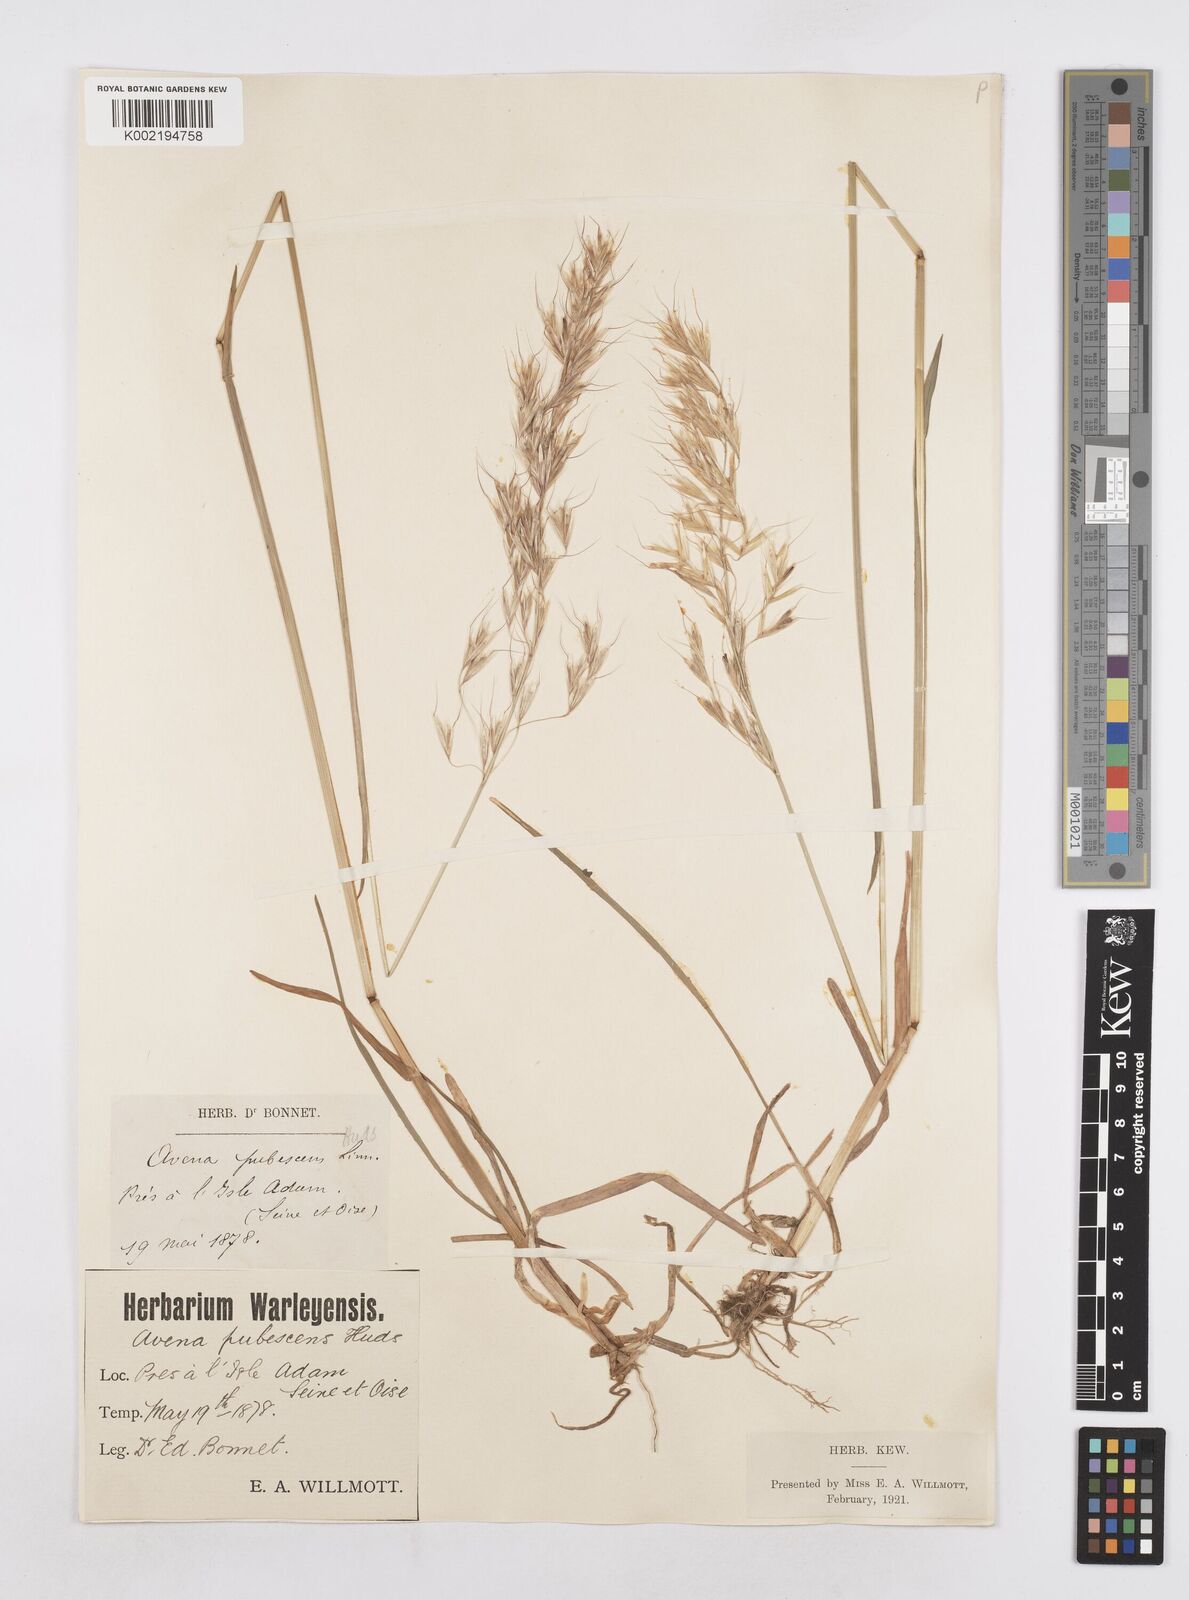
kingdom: Plantae
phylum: Tracheophyta
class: Liliopsida
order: Poales
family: Poaceae
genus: Avenula
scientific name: Avenula pubescens
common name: Downy alpine oatgrass
